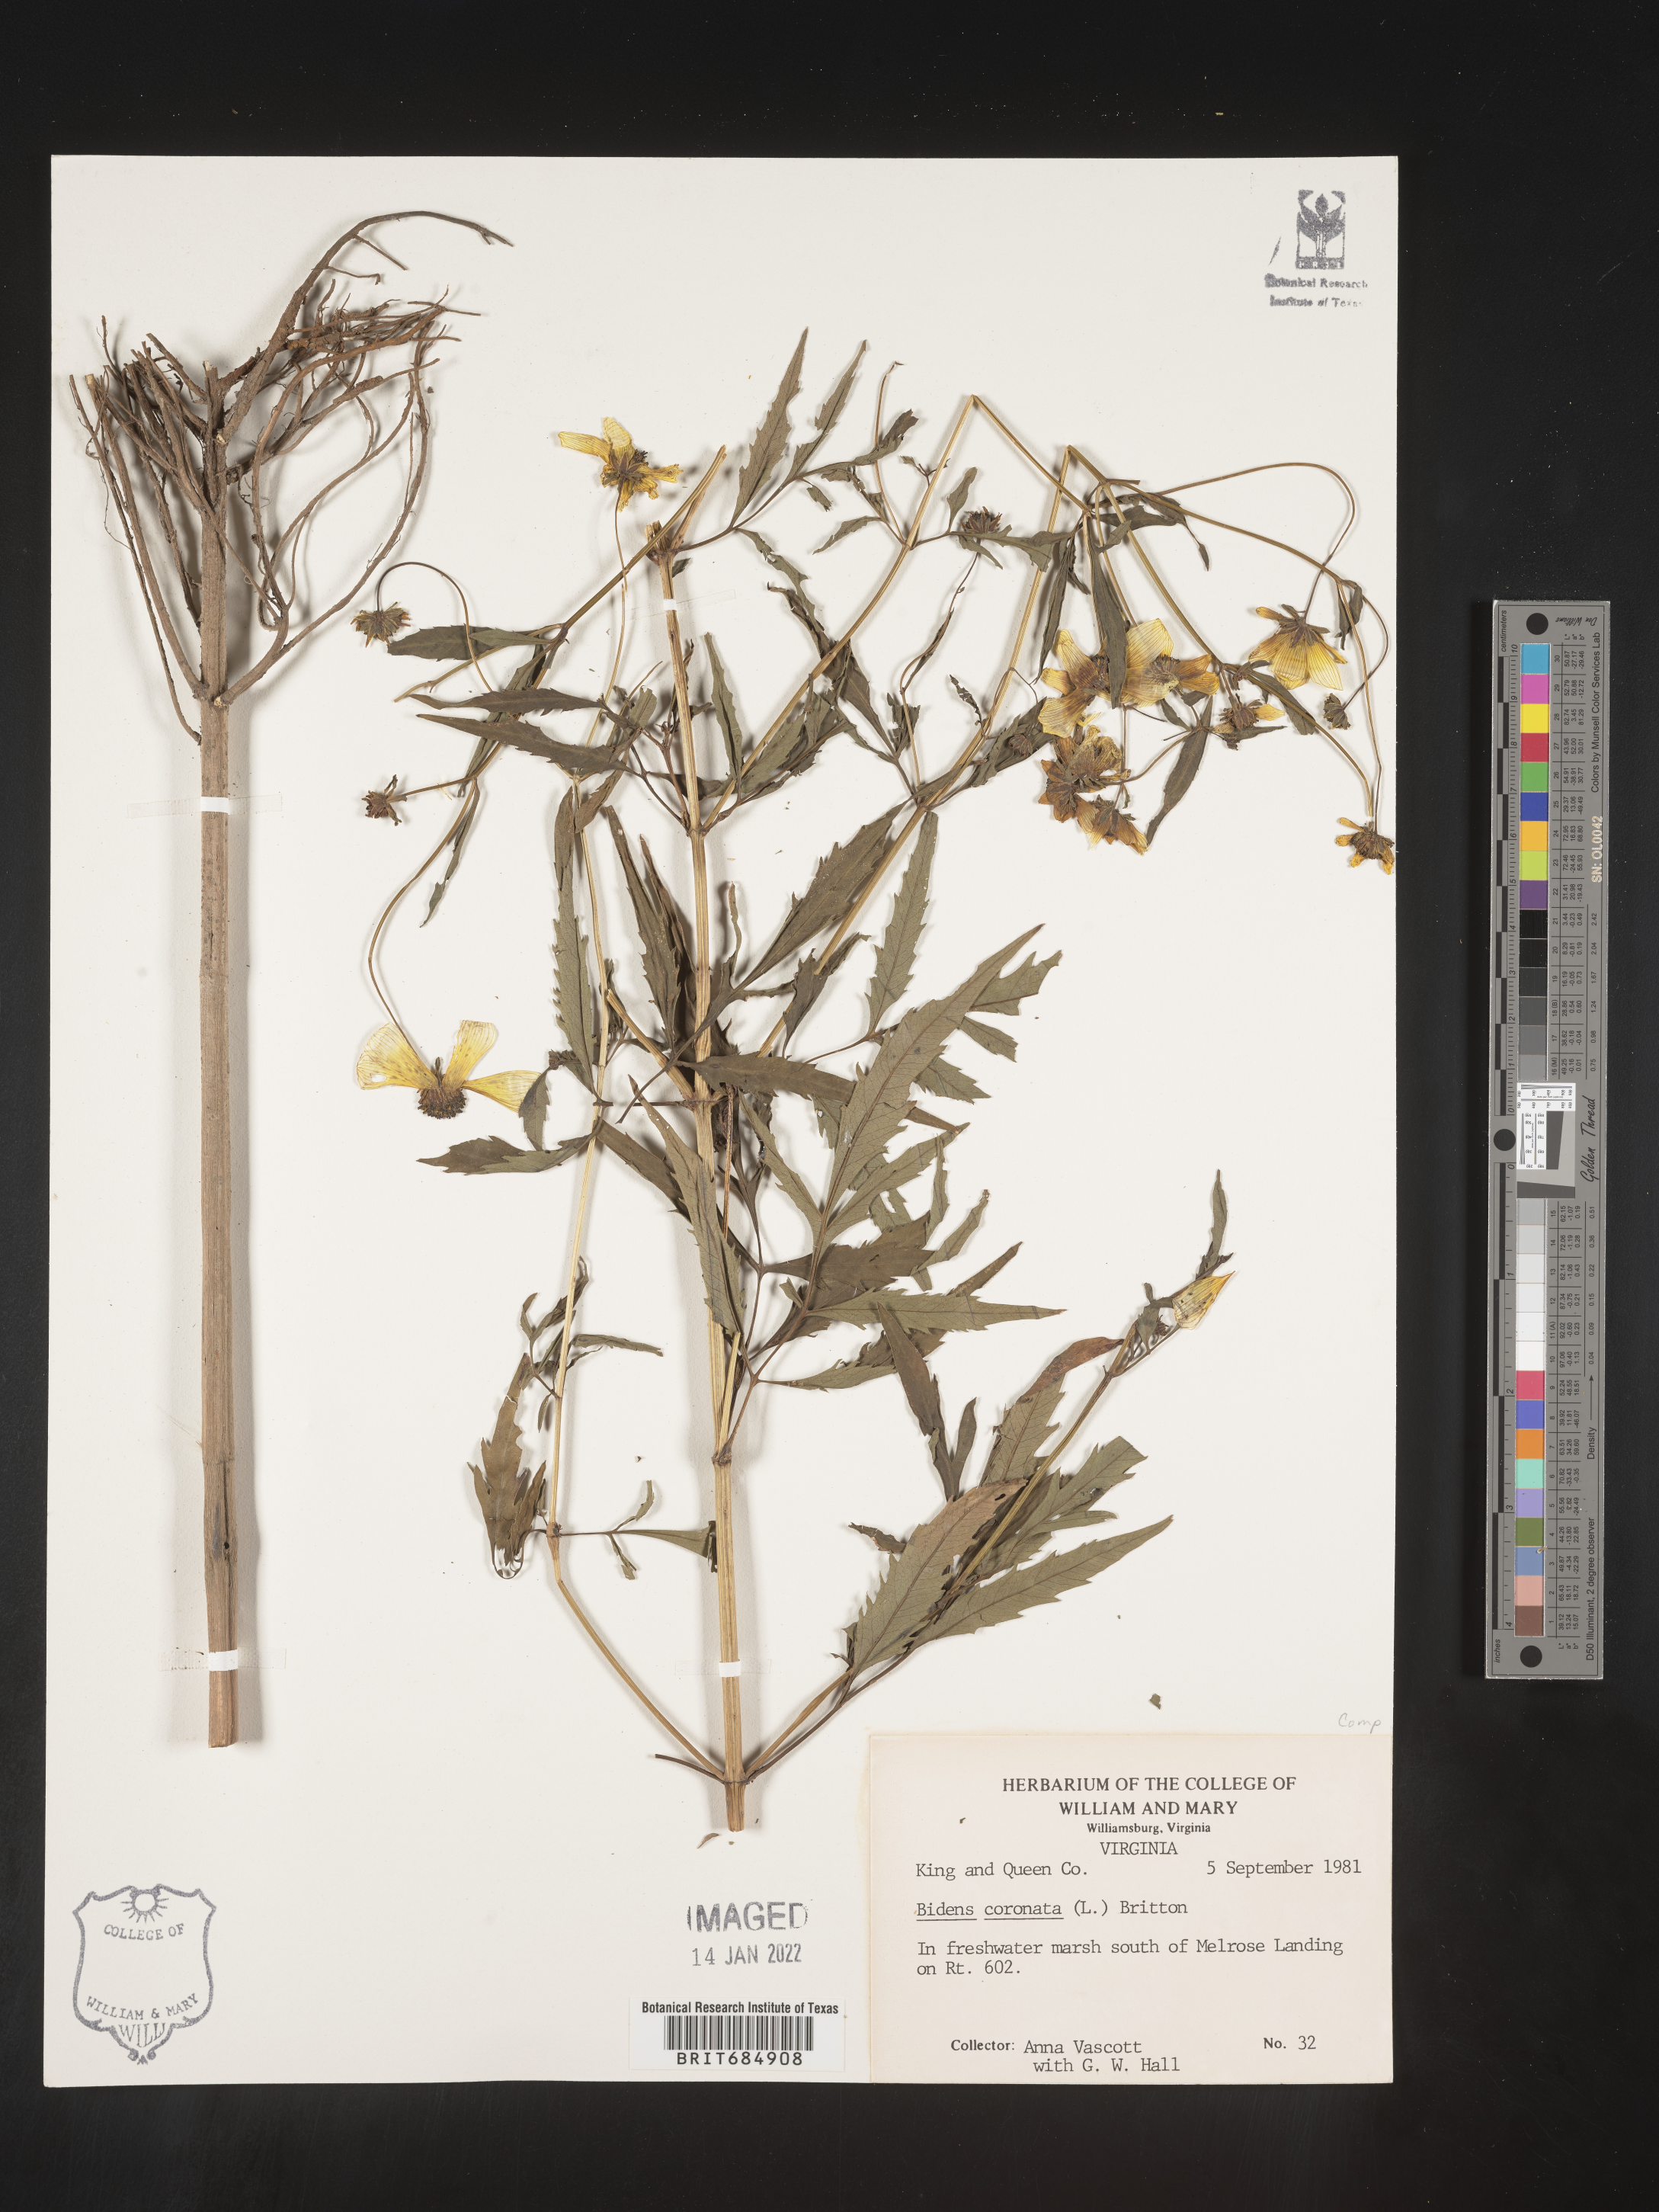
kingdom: Plantae
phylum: Tracheophyta
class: Magnoliopsida
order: Asterales
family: Asteraceae
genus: Bidens
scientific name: Bidens trichosperma
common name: Crowned beggarticks
